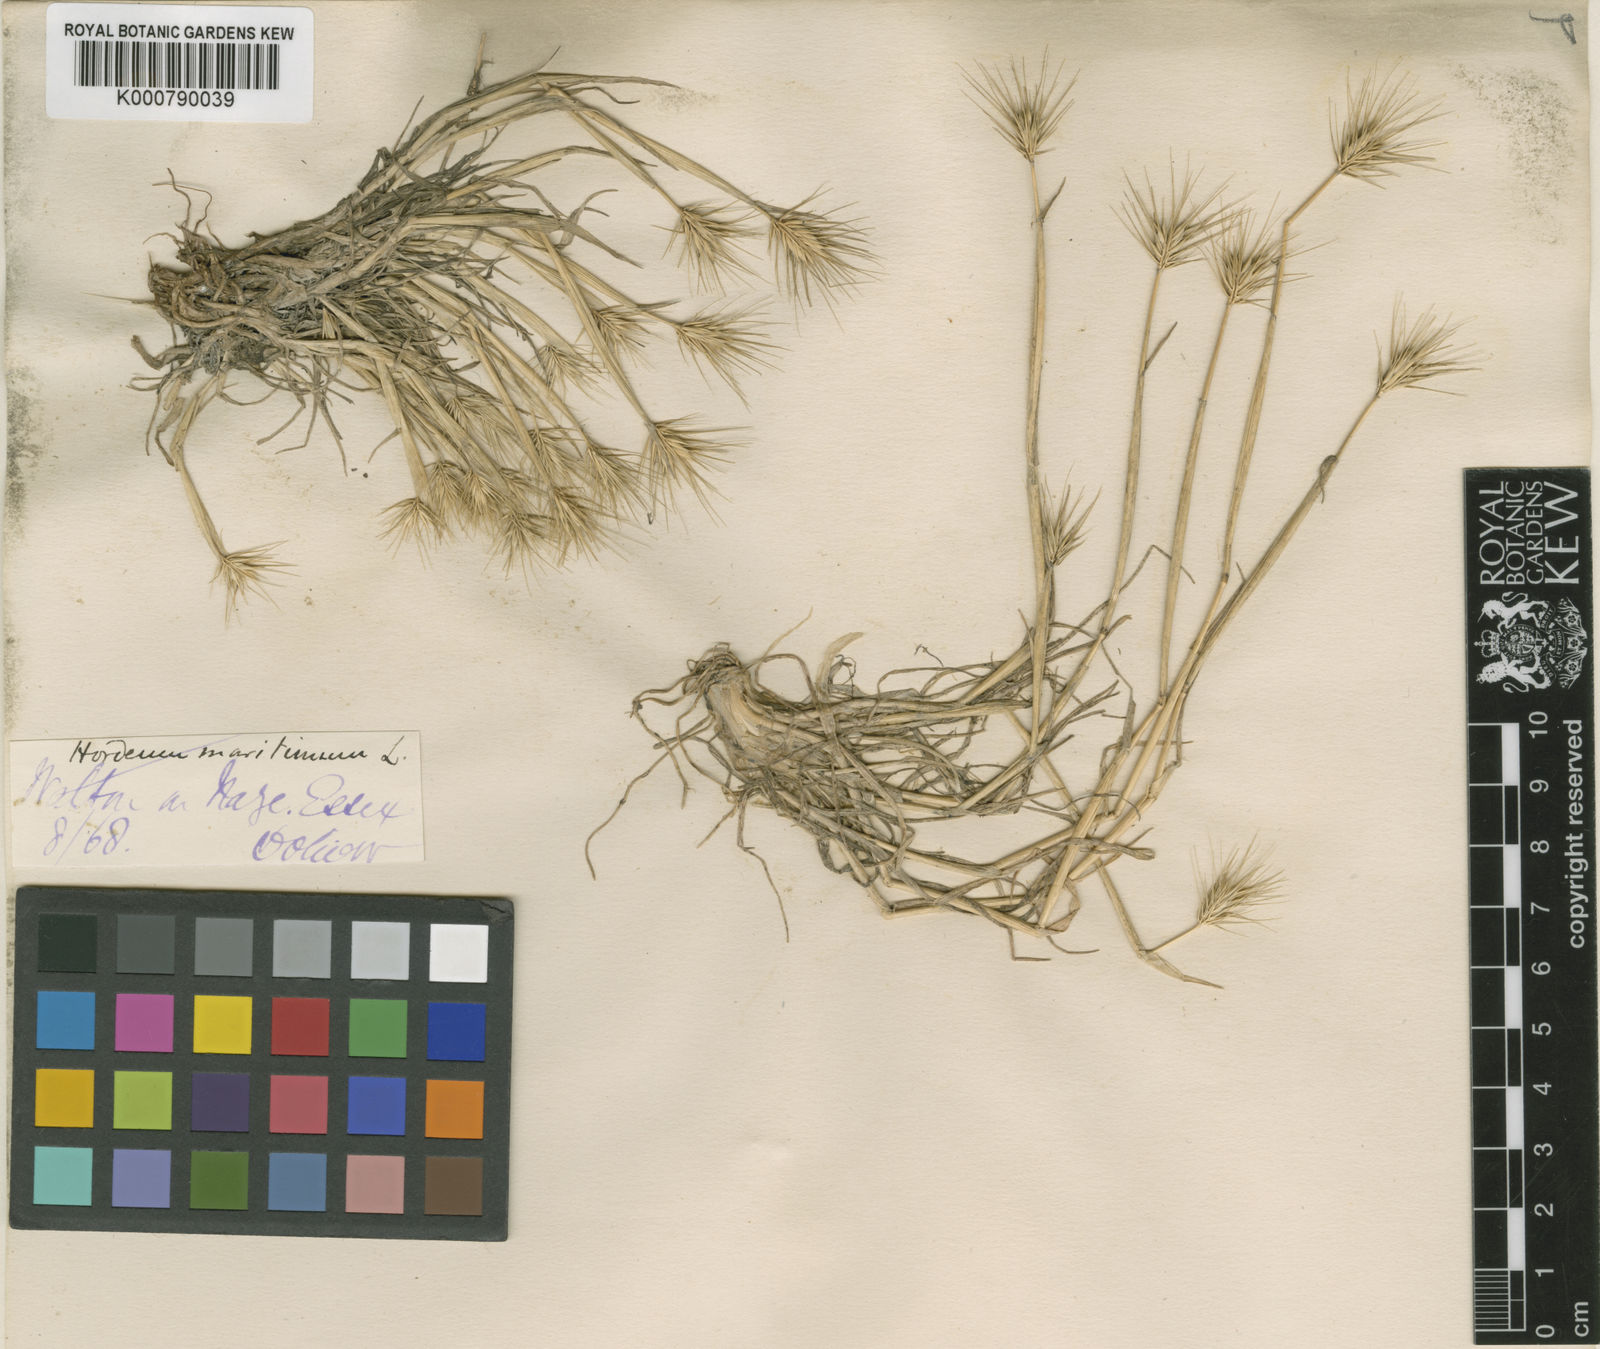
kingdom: Plantae
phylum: Tracheophyta
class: Liliopsida
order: Poales
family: Poaceae
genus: Hordeum
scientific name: Hordeum marinum
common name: Sea barley
